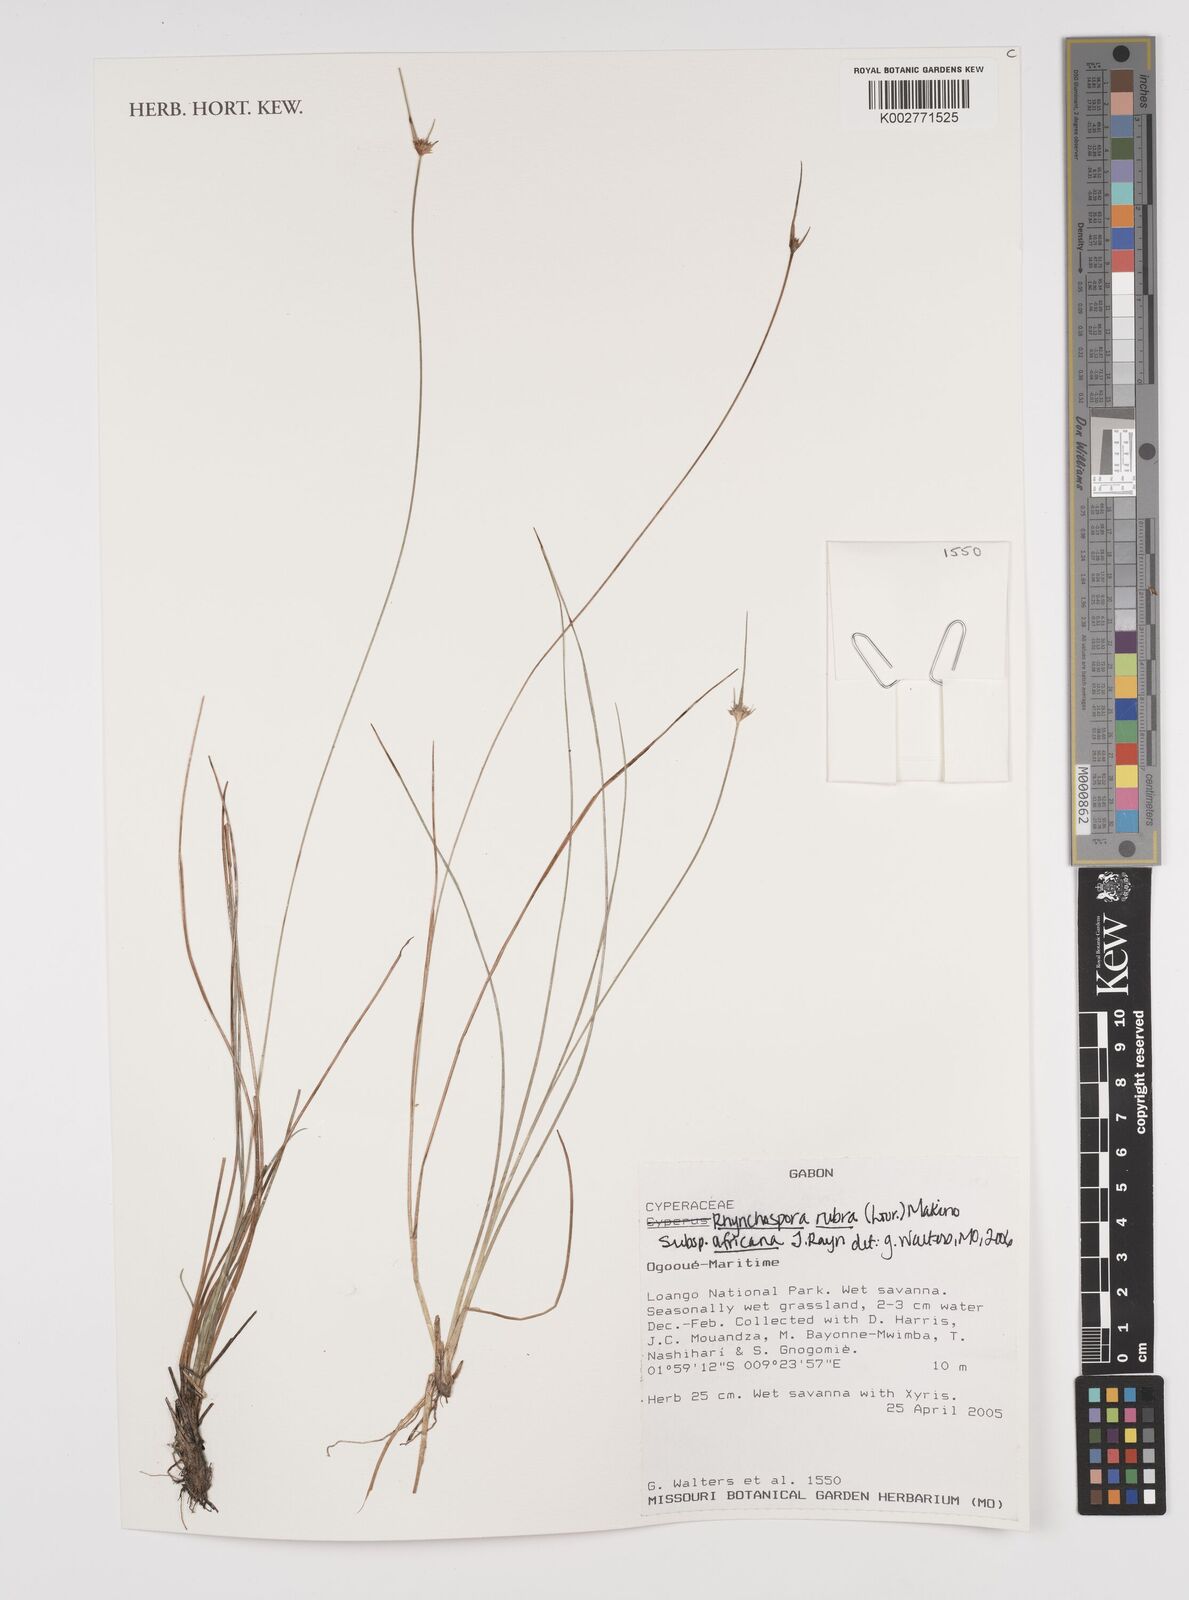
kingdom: Plantae
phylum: Tracheophyta
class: Liliopsida
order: Poales
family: Cyperaceae
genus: Rhynchospora
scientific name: Rhynchospora rubra
